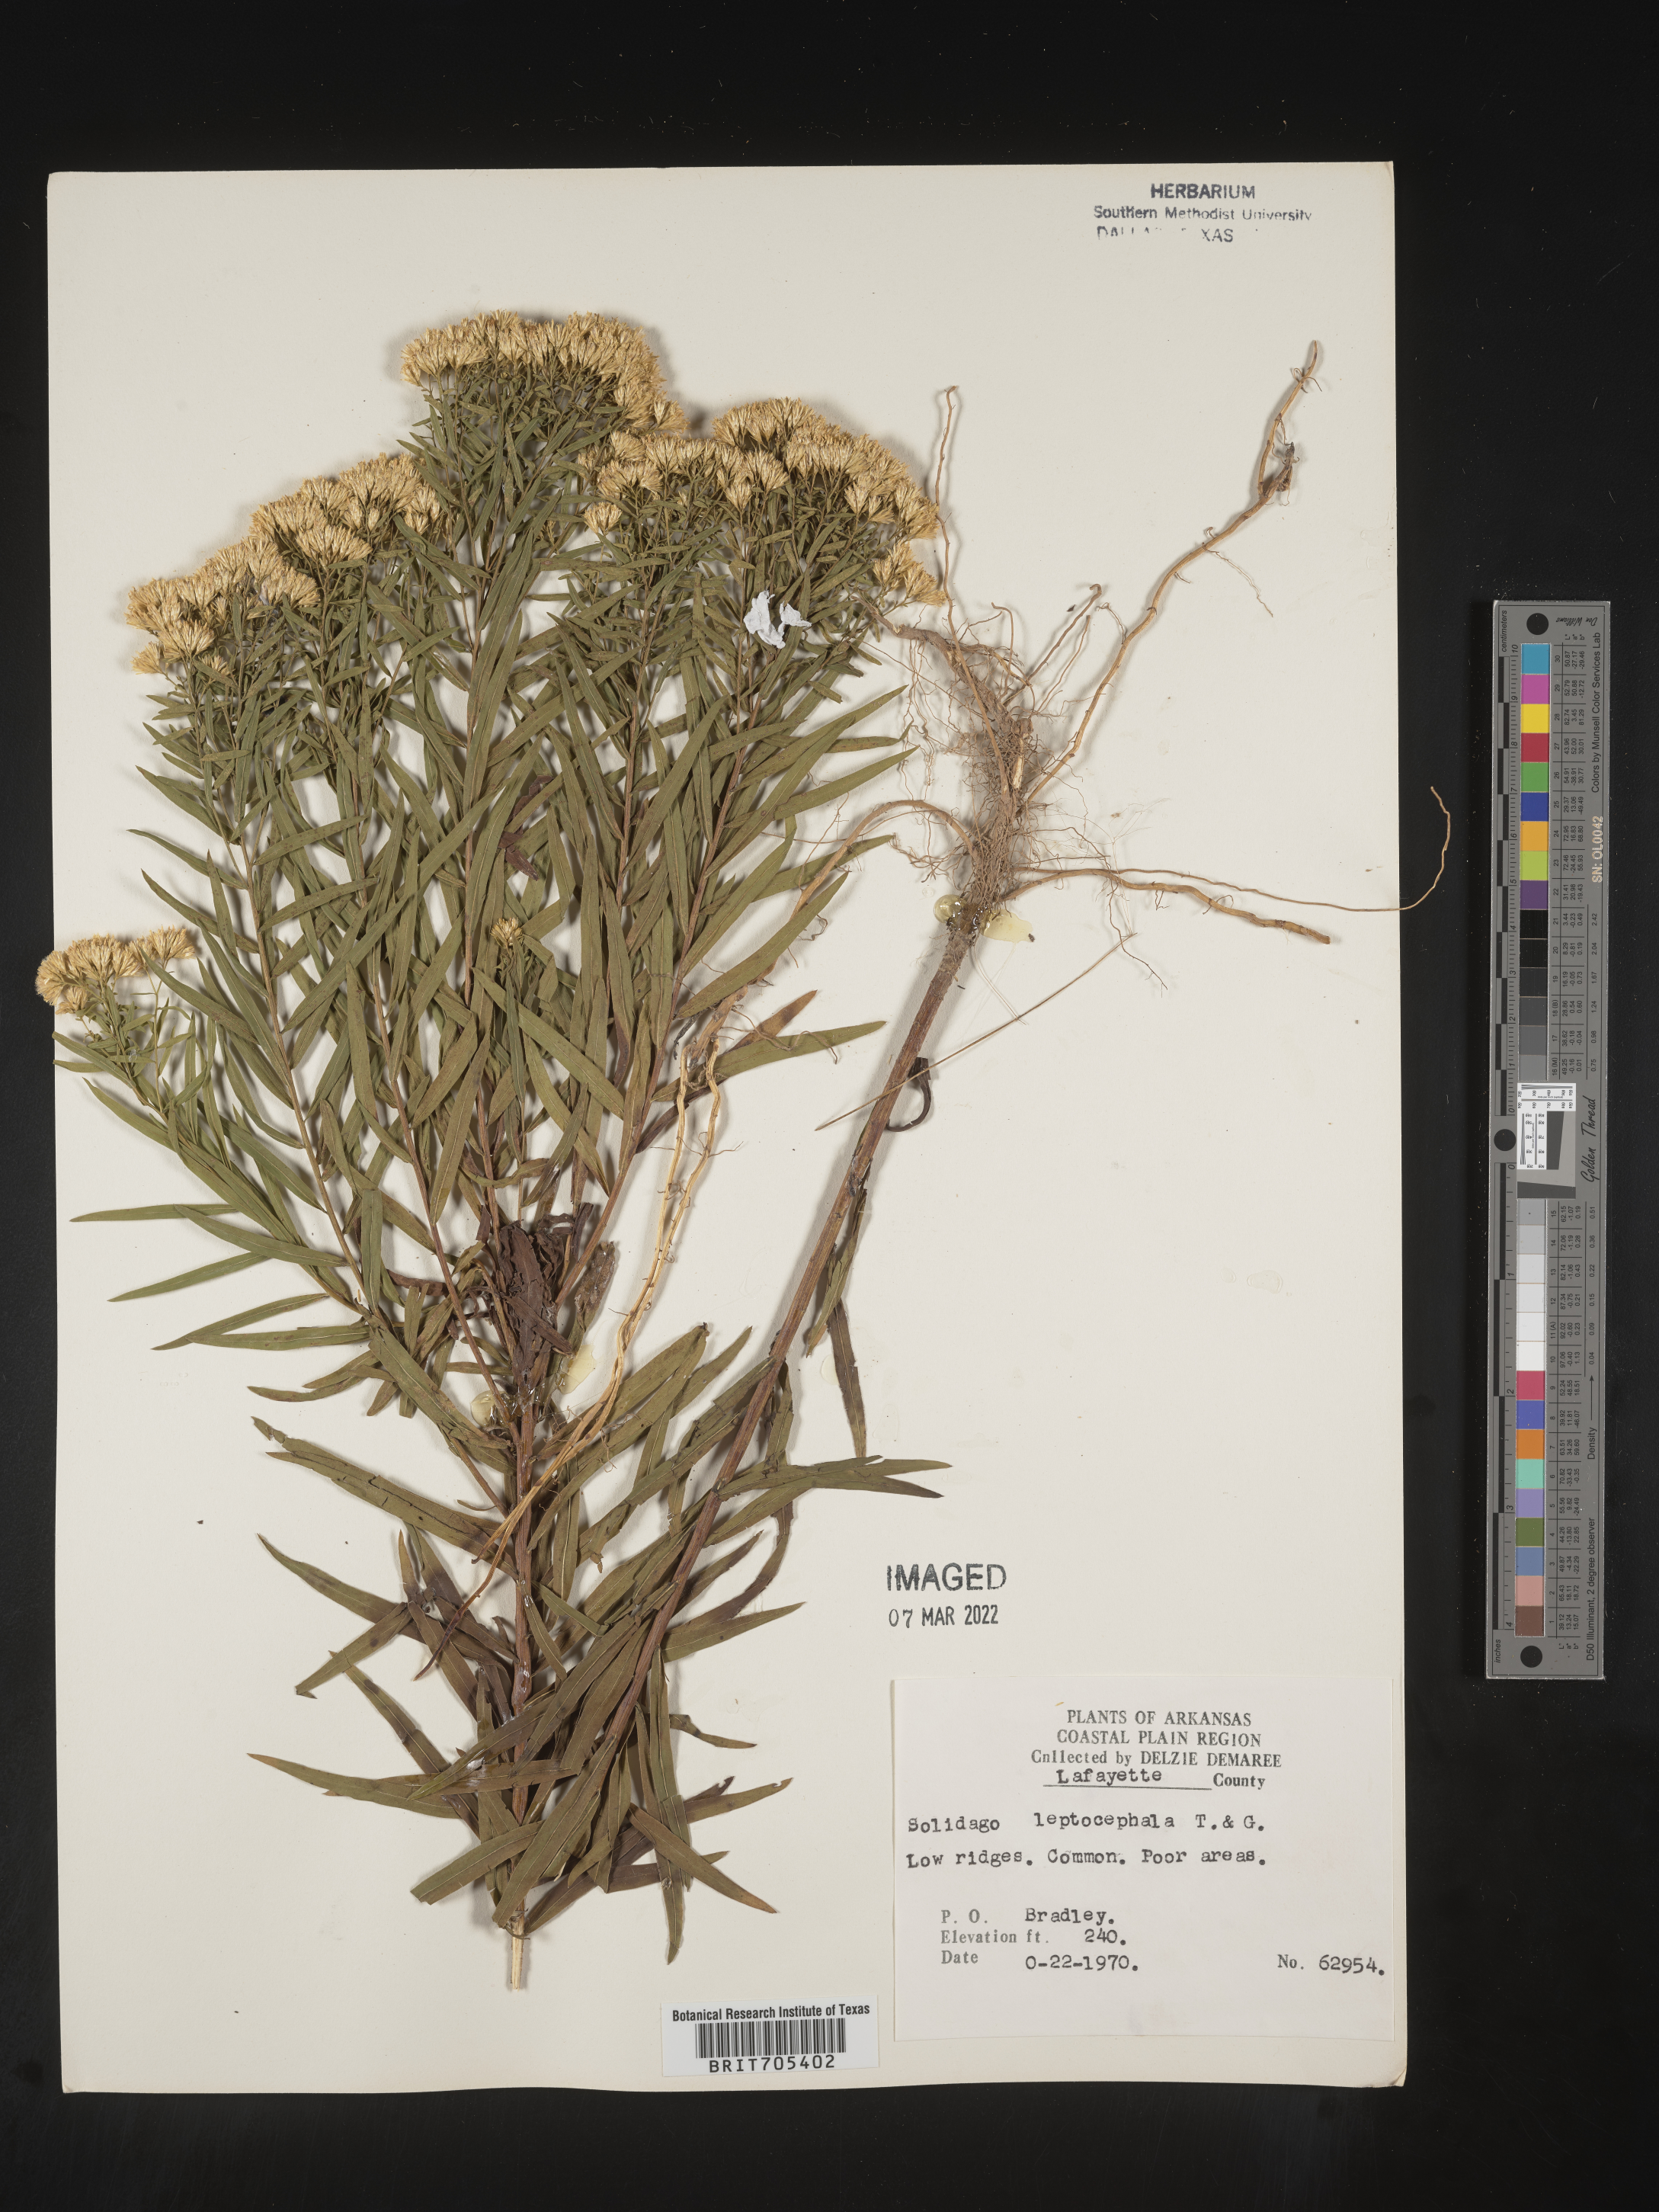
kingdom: Plantae
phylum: Tracheophyta
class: Magnoliopsida
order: Asterales
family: Asteraceae
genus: Euthamia
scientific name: Euthamia leptocephala
